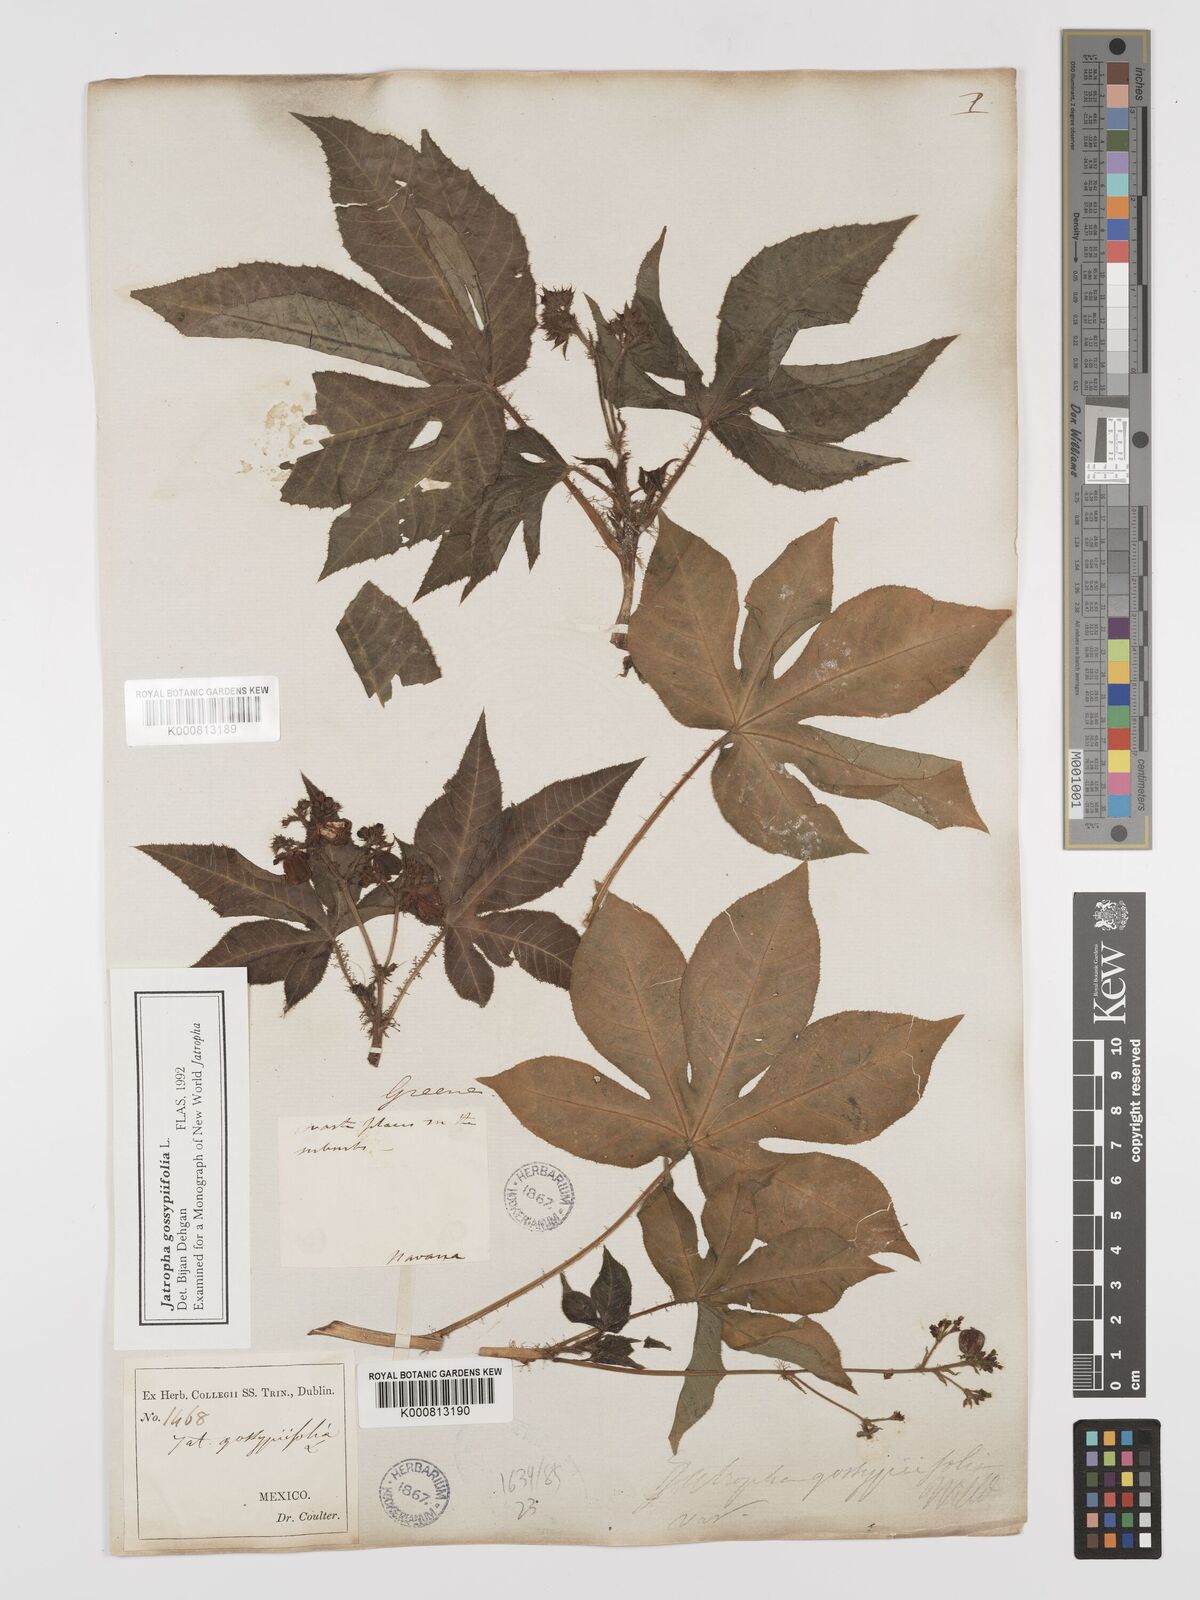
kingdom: Plantae
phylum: Tracheophyta
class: Magnoliopsida
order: Malpighiales
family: Euphorbiaceae
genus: Jatropha
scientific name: Jatropha gossypiifolia
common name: Bellyache bush
